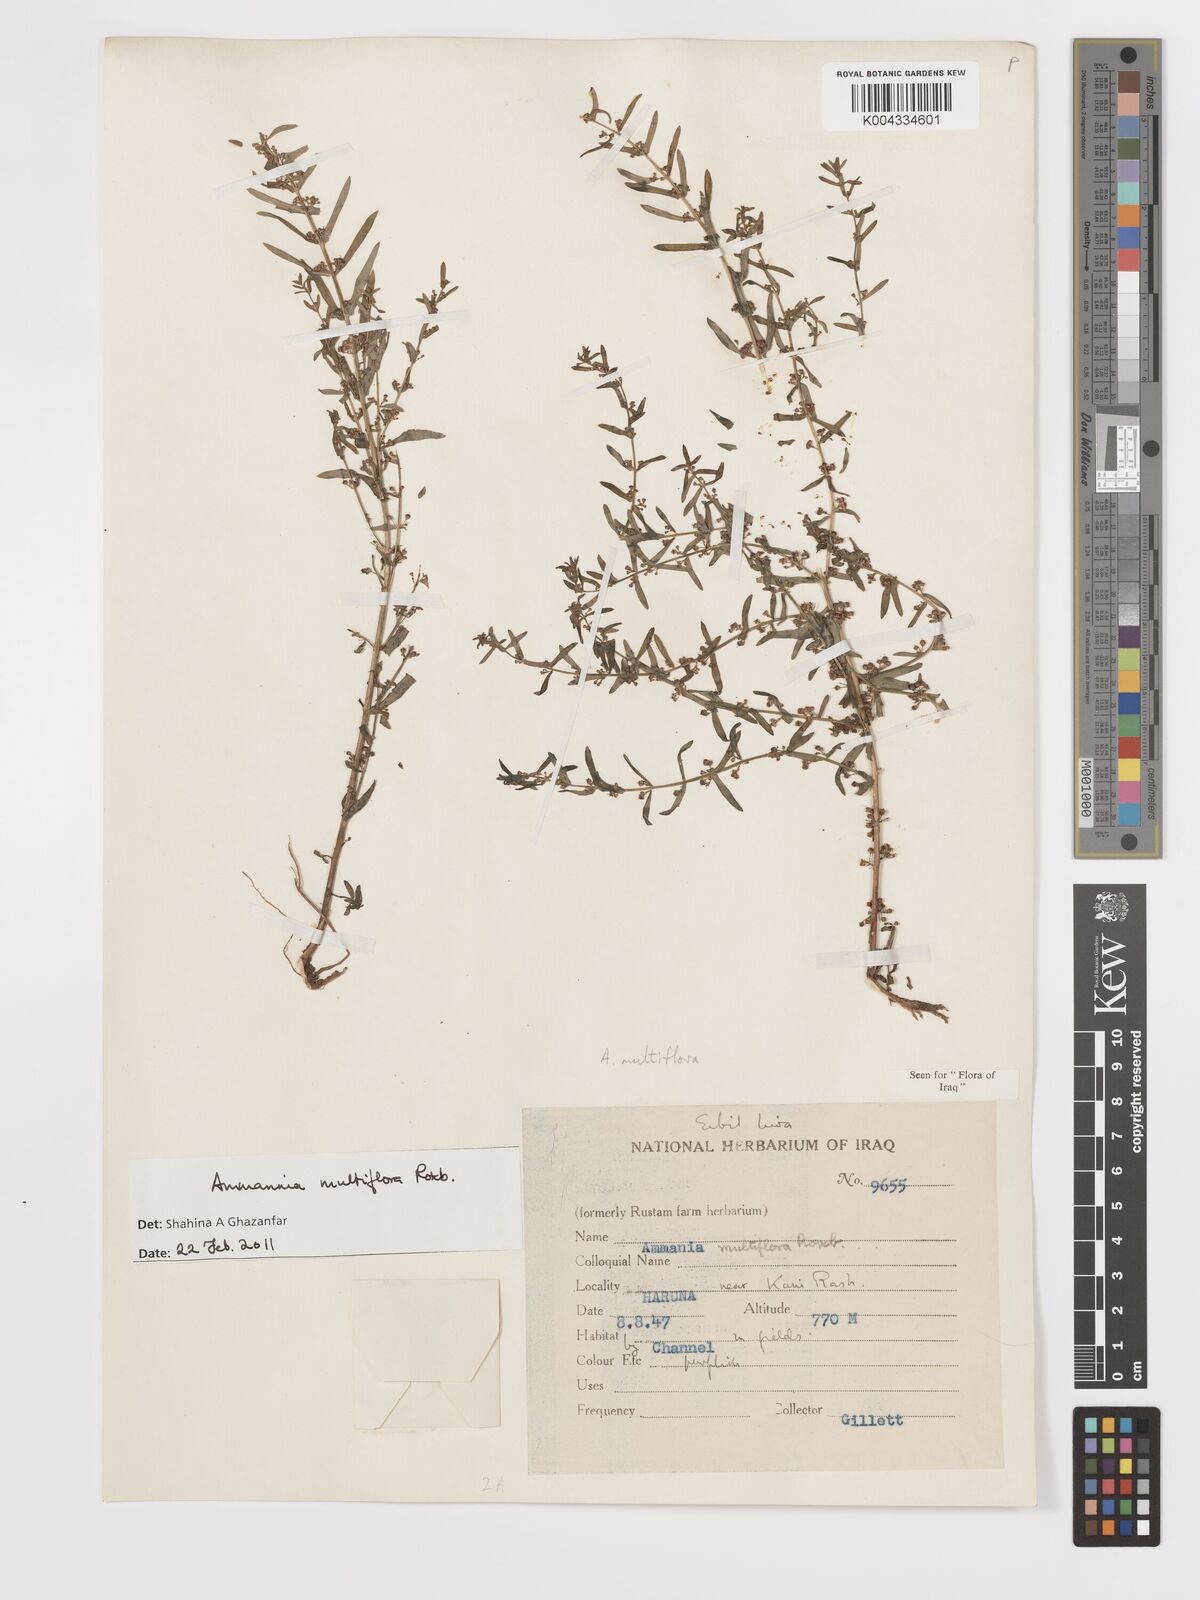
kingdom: Plantae
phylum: Tracheophyta
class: Magnoliopsida
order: Myrtales
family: Lythraceae
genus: Ammannia
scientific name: Ammannia auriculata
